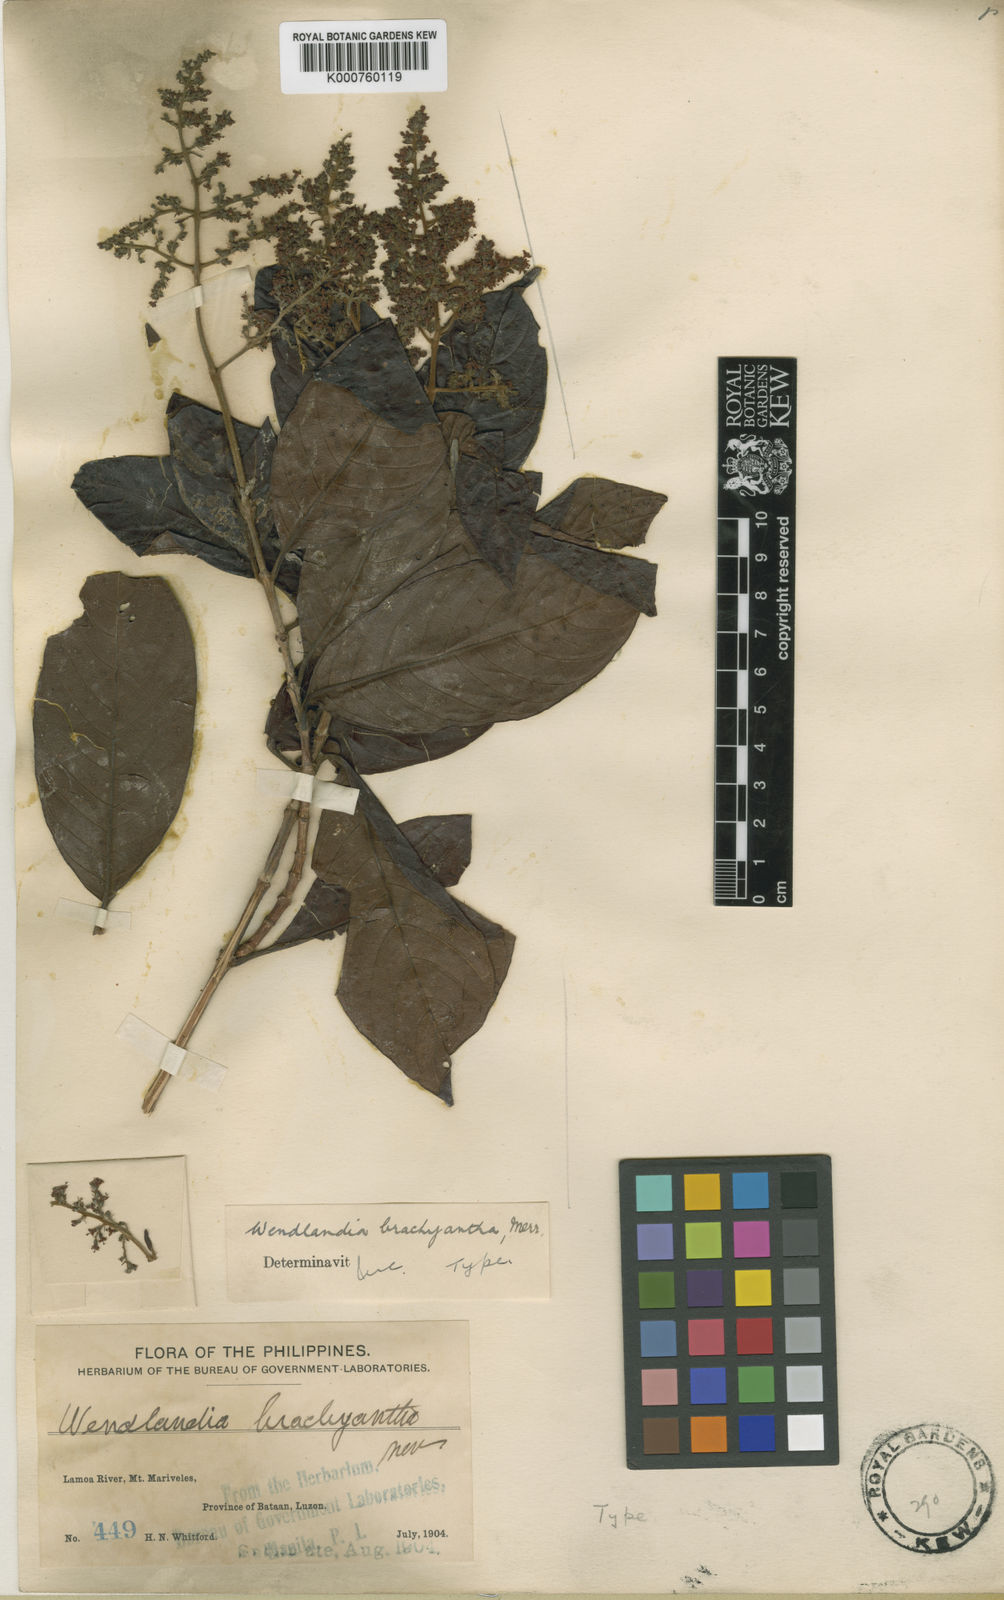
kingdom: Plantae
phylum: Tracheophyta
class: Magnoliopsida
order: Gentianales
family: Rubiaceae
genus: Wendlandia
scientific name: Wendlandia brachyantha
